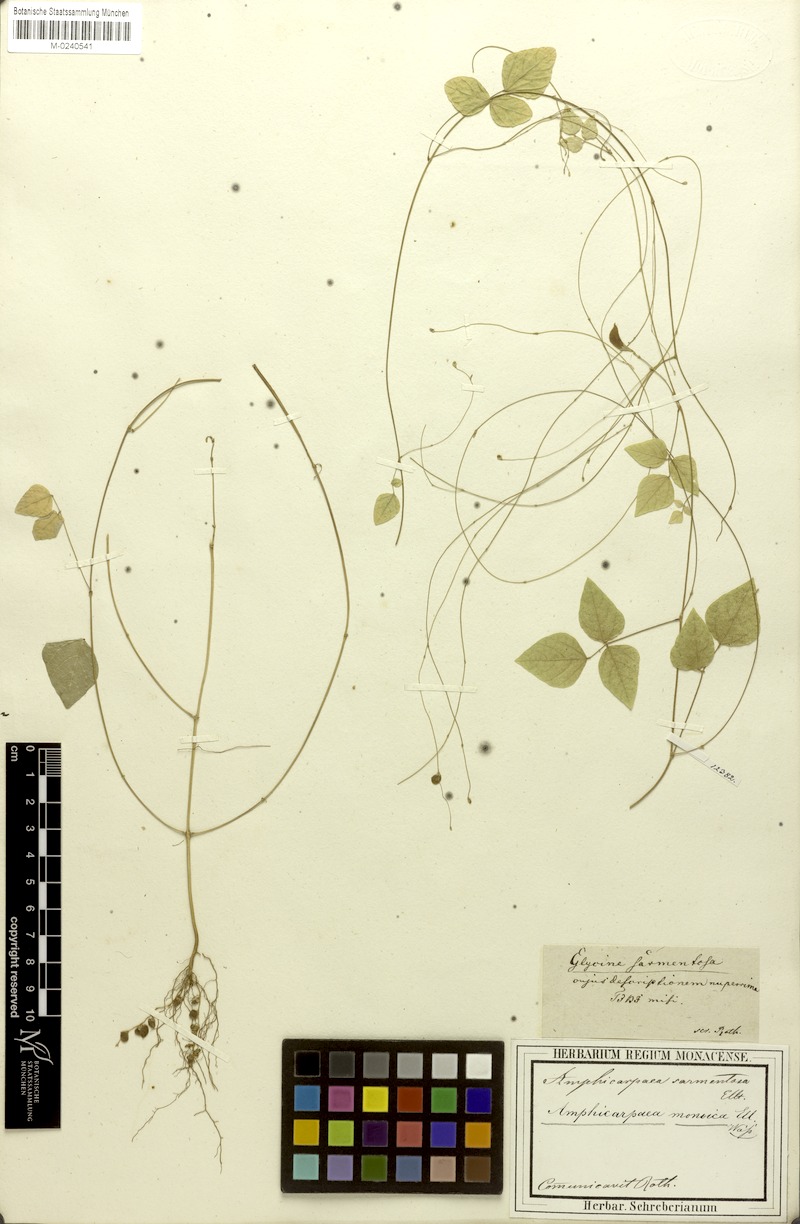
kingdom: Plantae
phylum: Tracheophyta
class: Magnoliopsida
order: Fabales
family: Fabaceae
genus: Amphicarpaea
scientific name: Amphicarpaea bracteata
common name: American hog peanut
